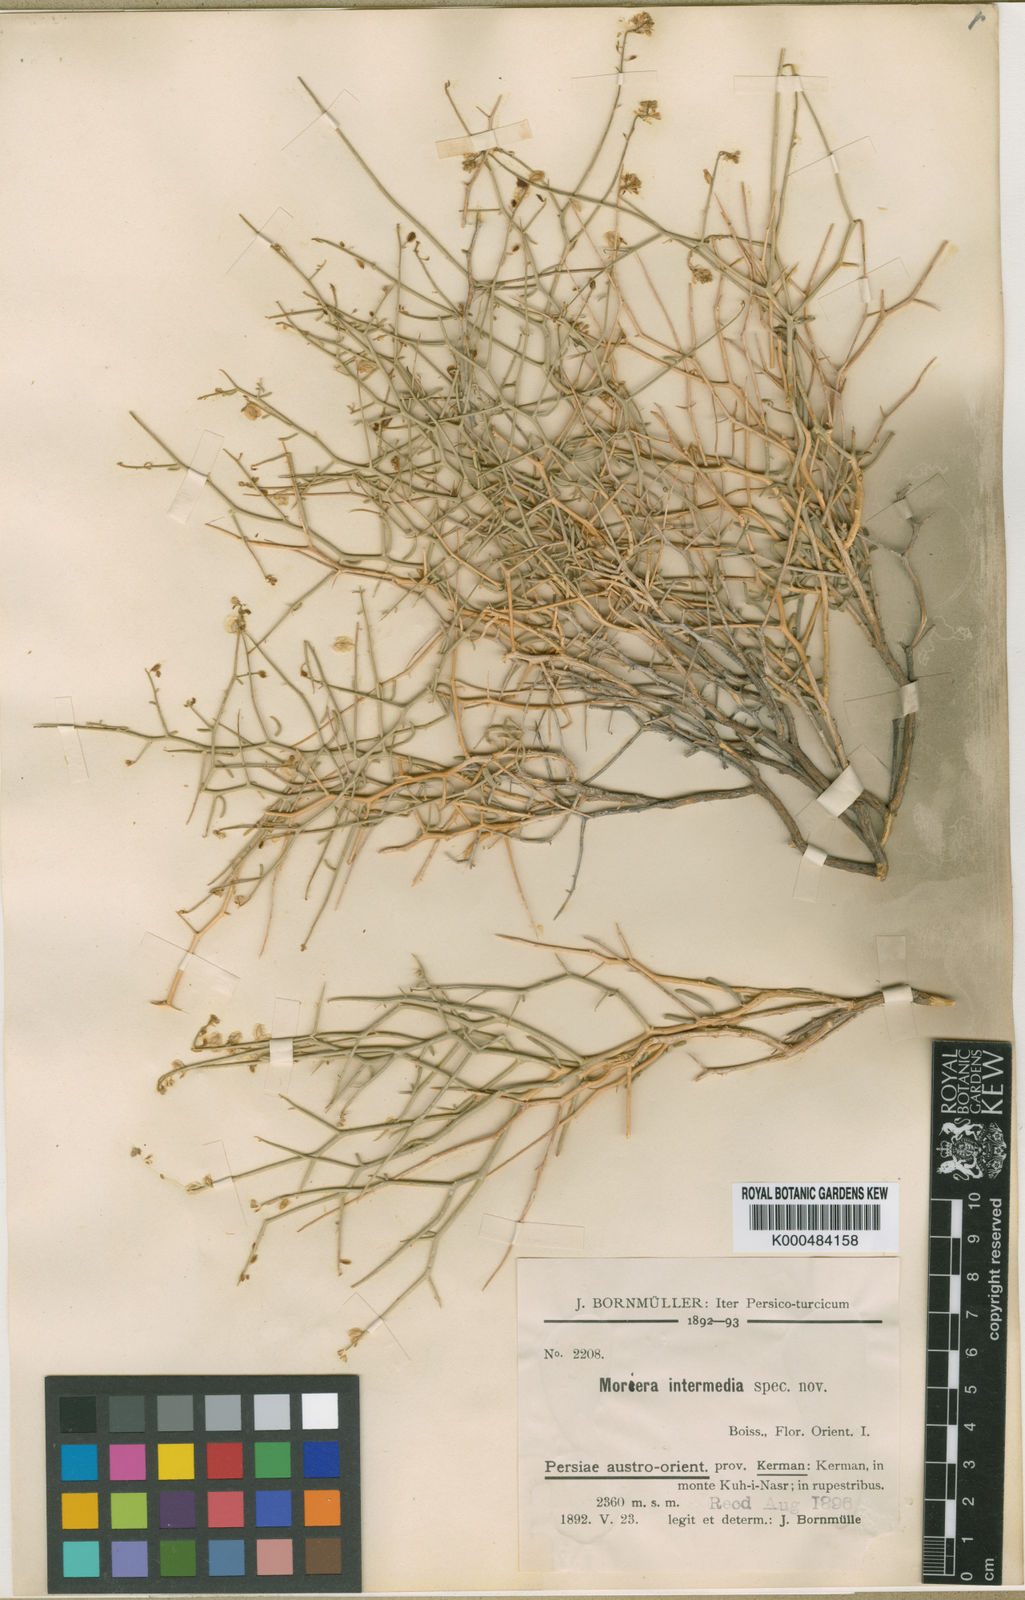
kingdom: Plantae
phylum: Tracheophyta
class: Magnoliopsida
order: Brassicales
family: Brassicaceae
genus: Aethionema
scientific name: Aethionema
